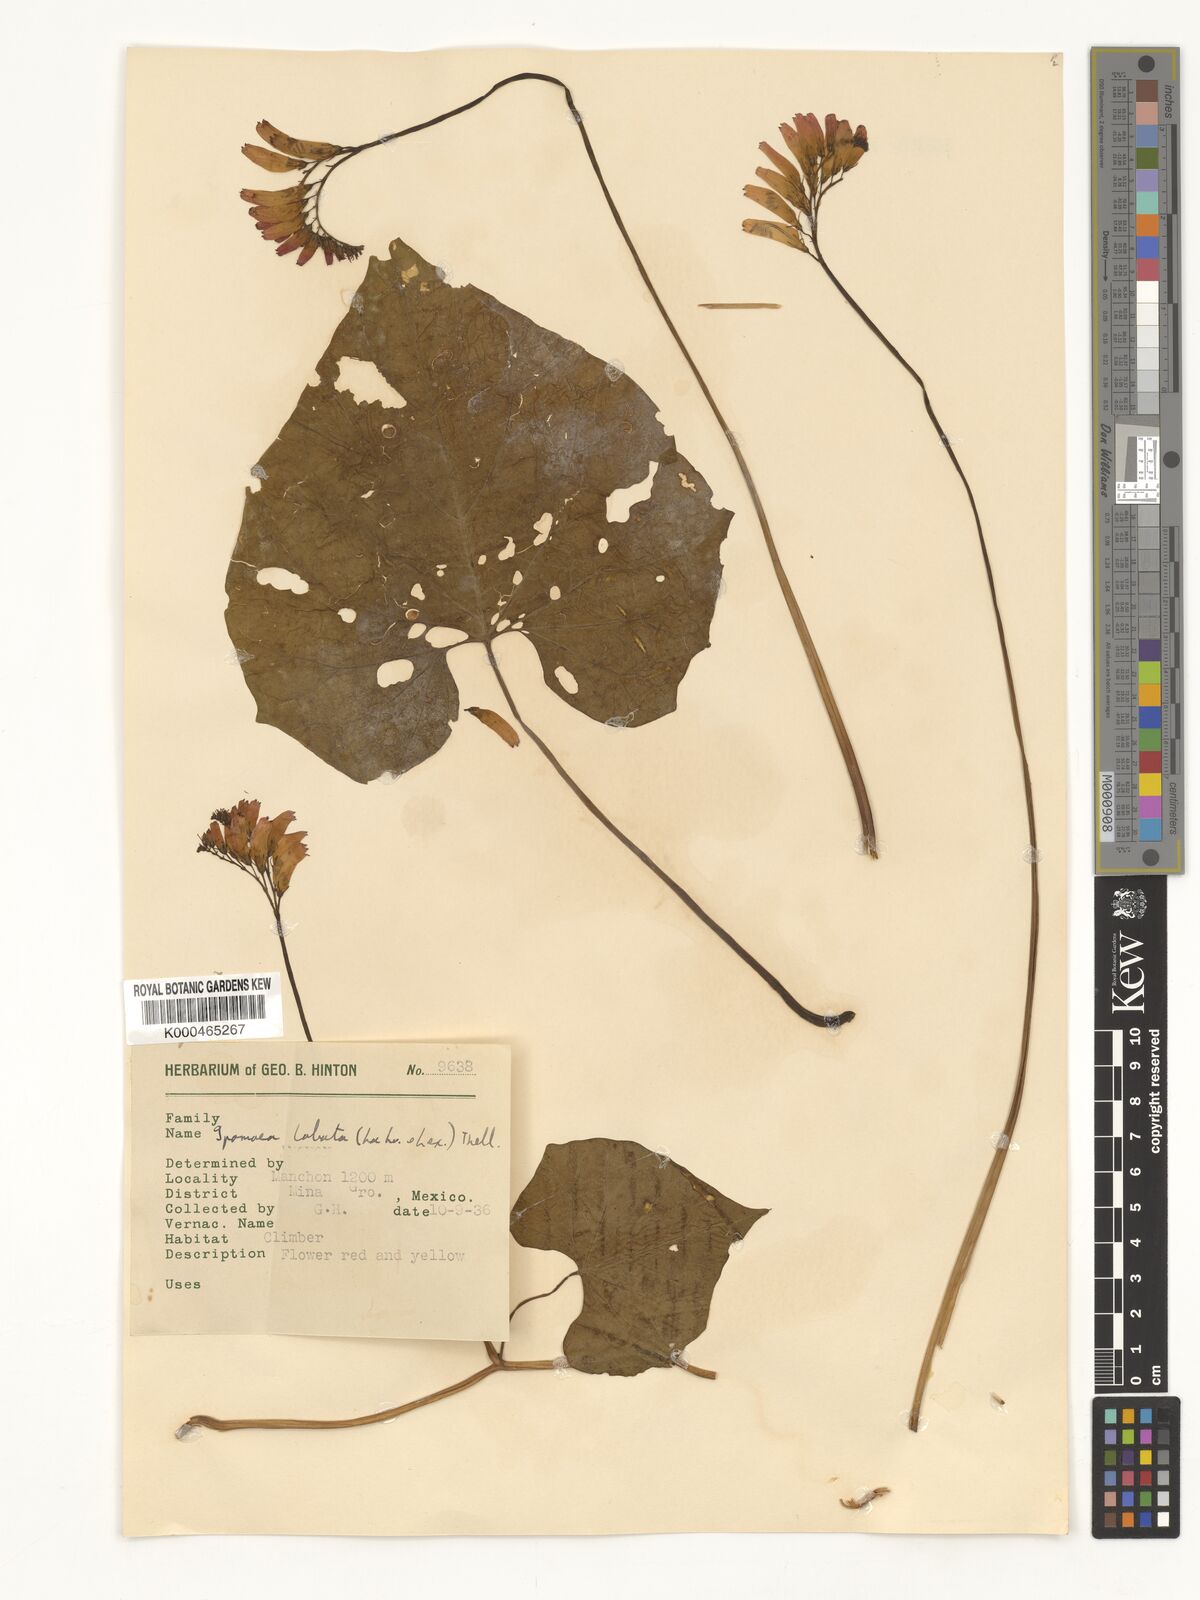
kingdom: Plantae
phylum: Tracheophyta
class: Magnoliopsida
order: Solanales
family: Convolvulaceae
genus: Ipomoea
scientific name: Ipomoea lobata
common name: Spanish-flag
